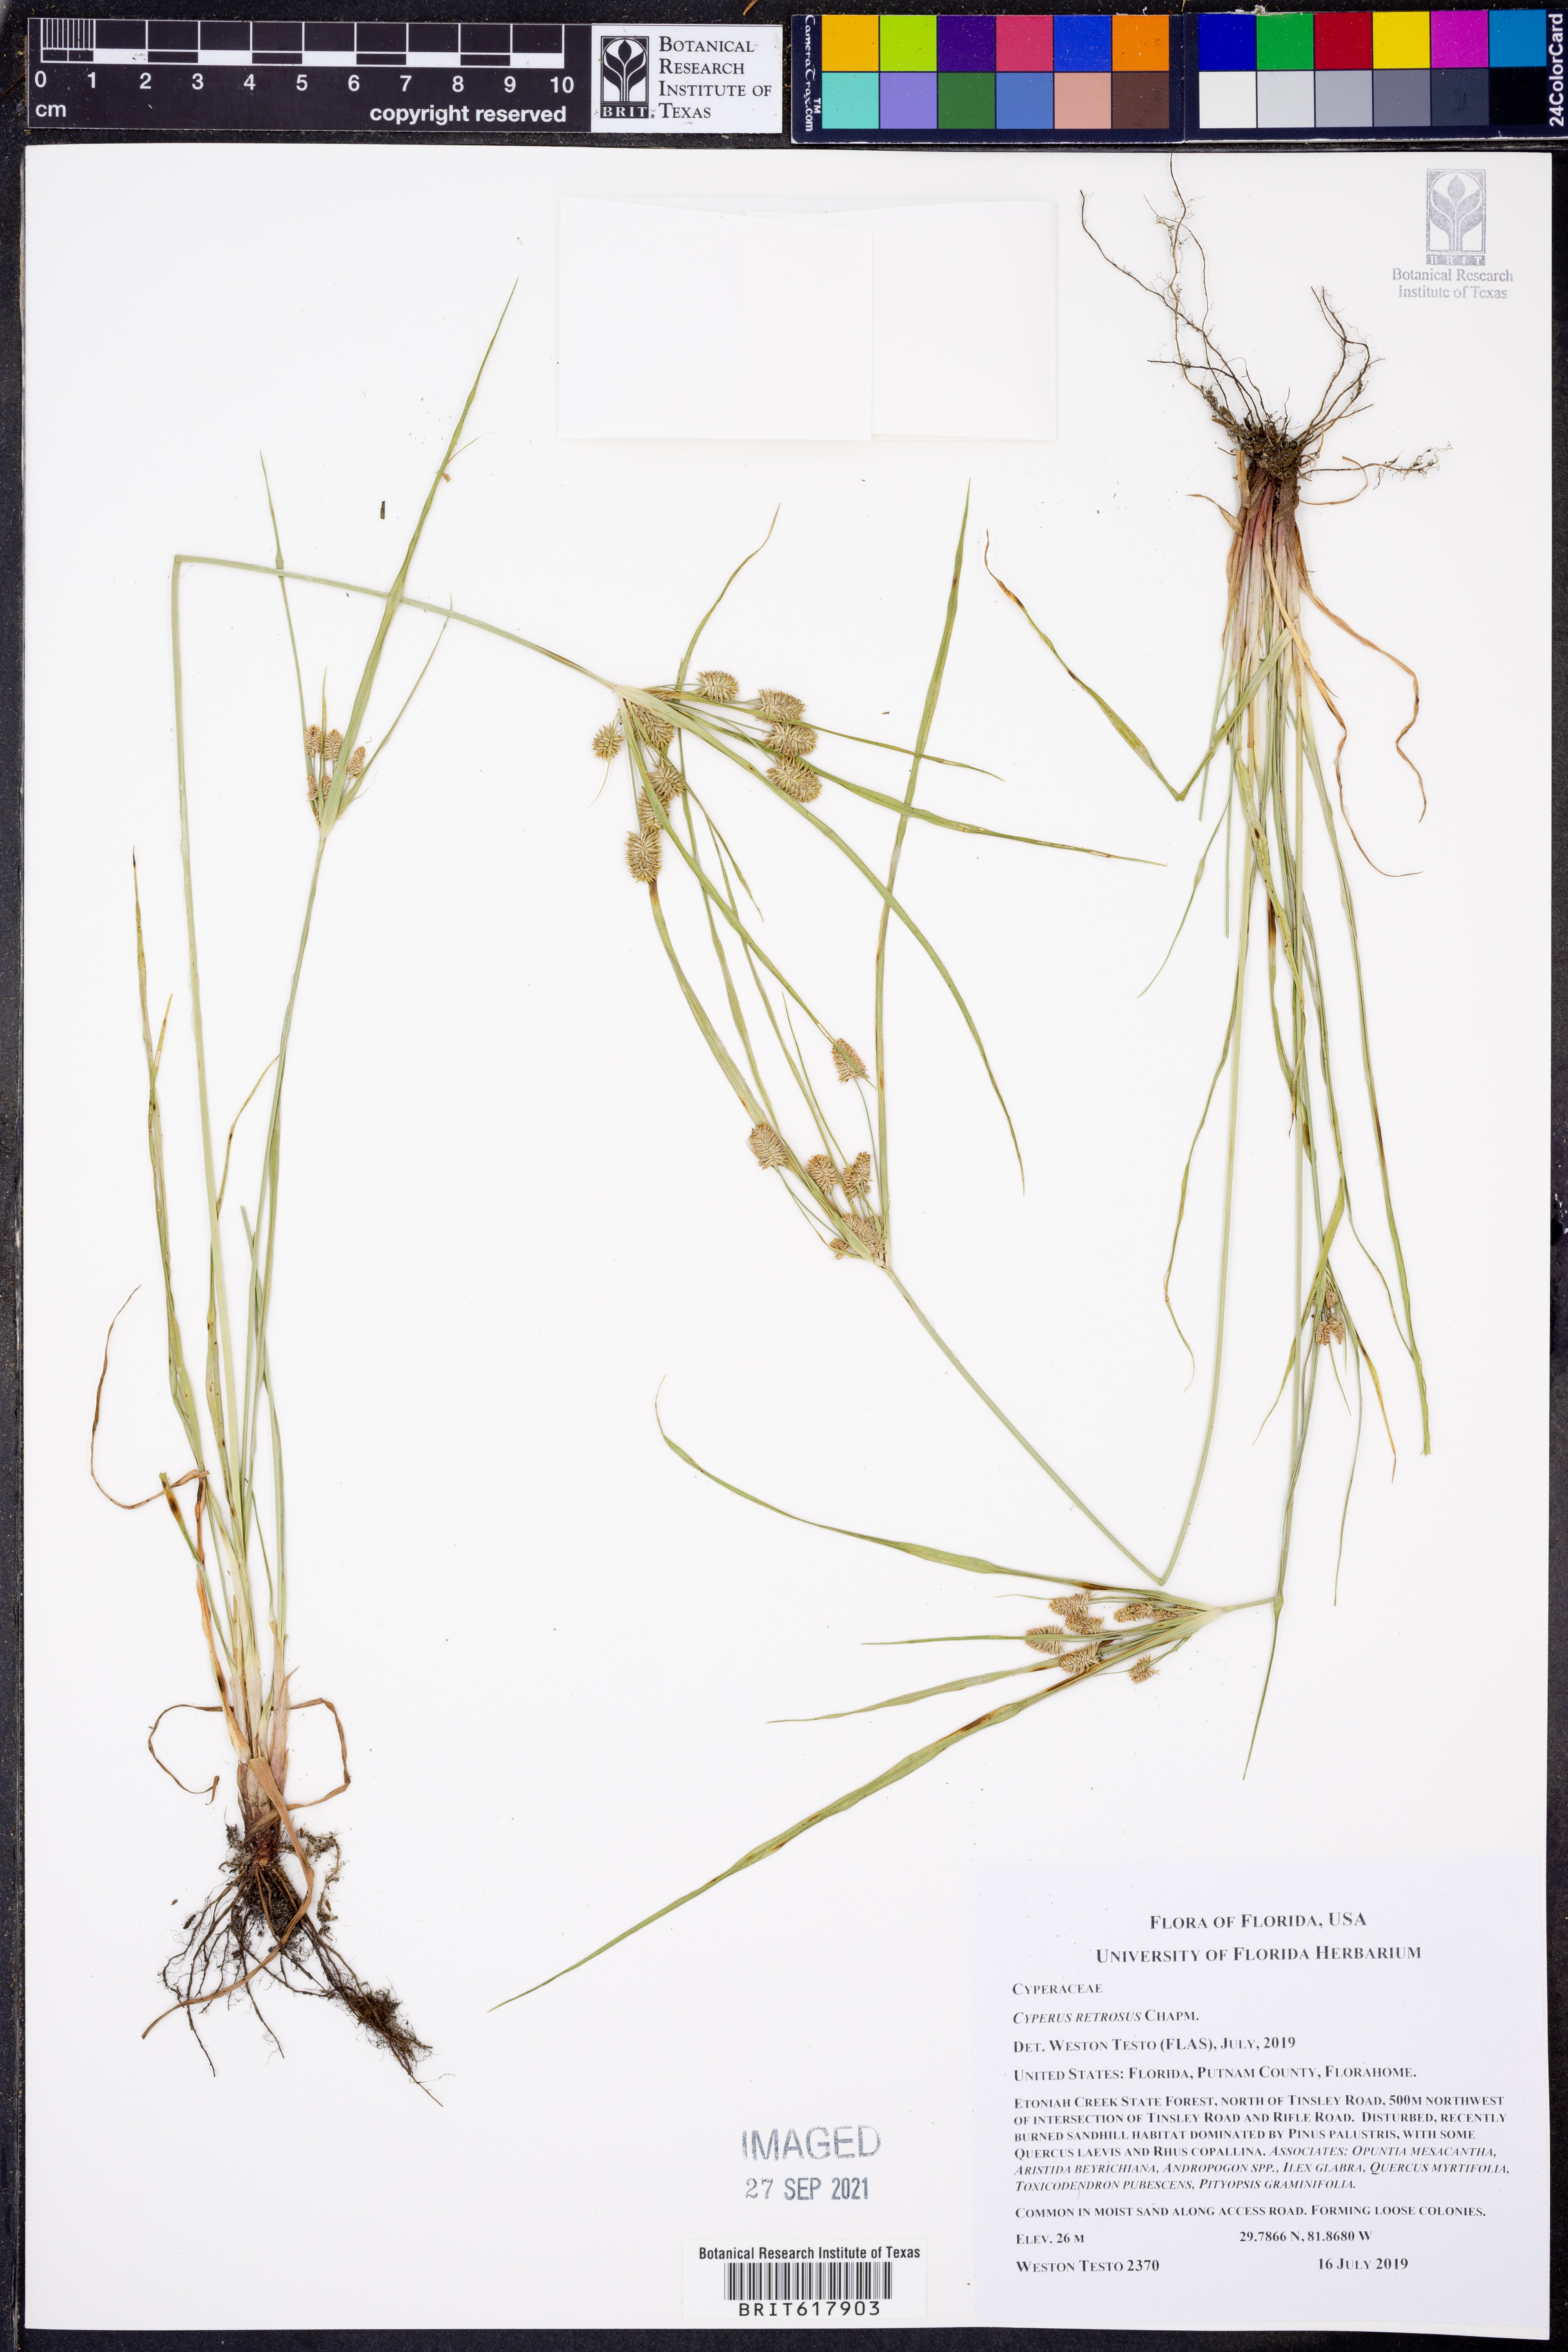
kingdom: Plantae
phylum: Tracheophyta
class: Liliopsida
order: Poales
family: Cyperaceae
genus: Cyperus
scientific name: Cyperus retrorsus
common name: Pinebarren flat sedge
